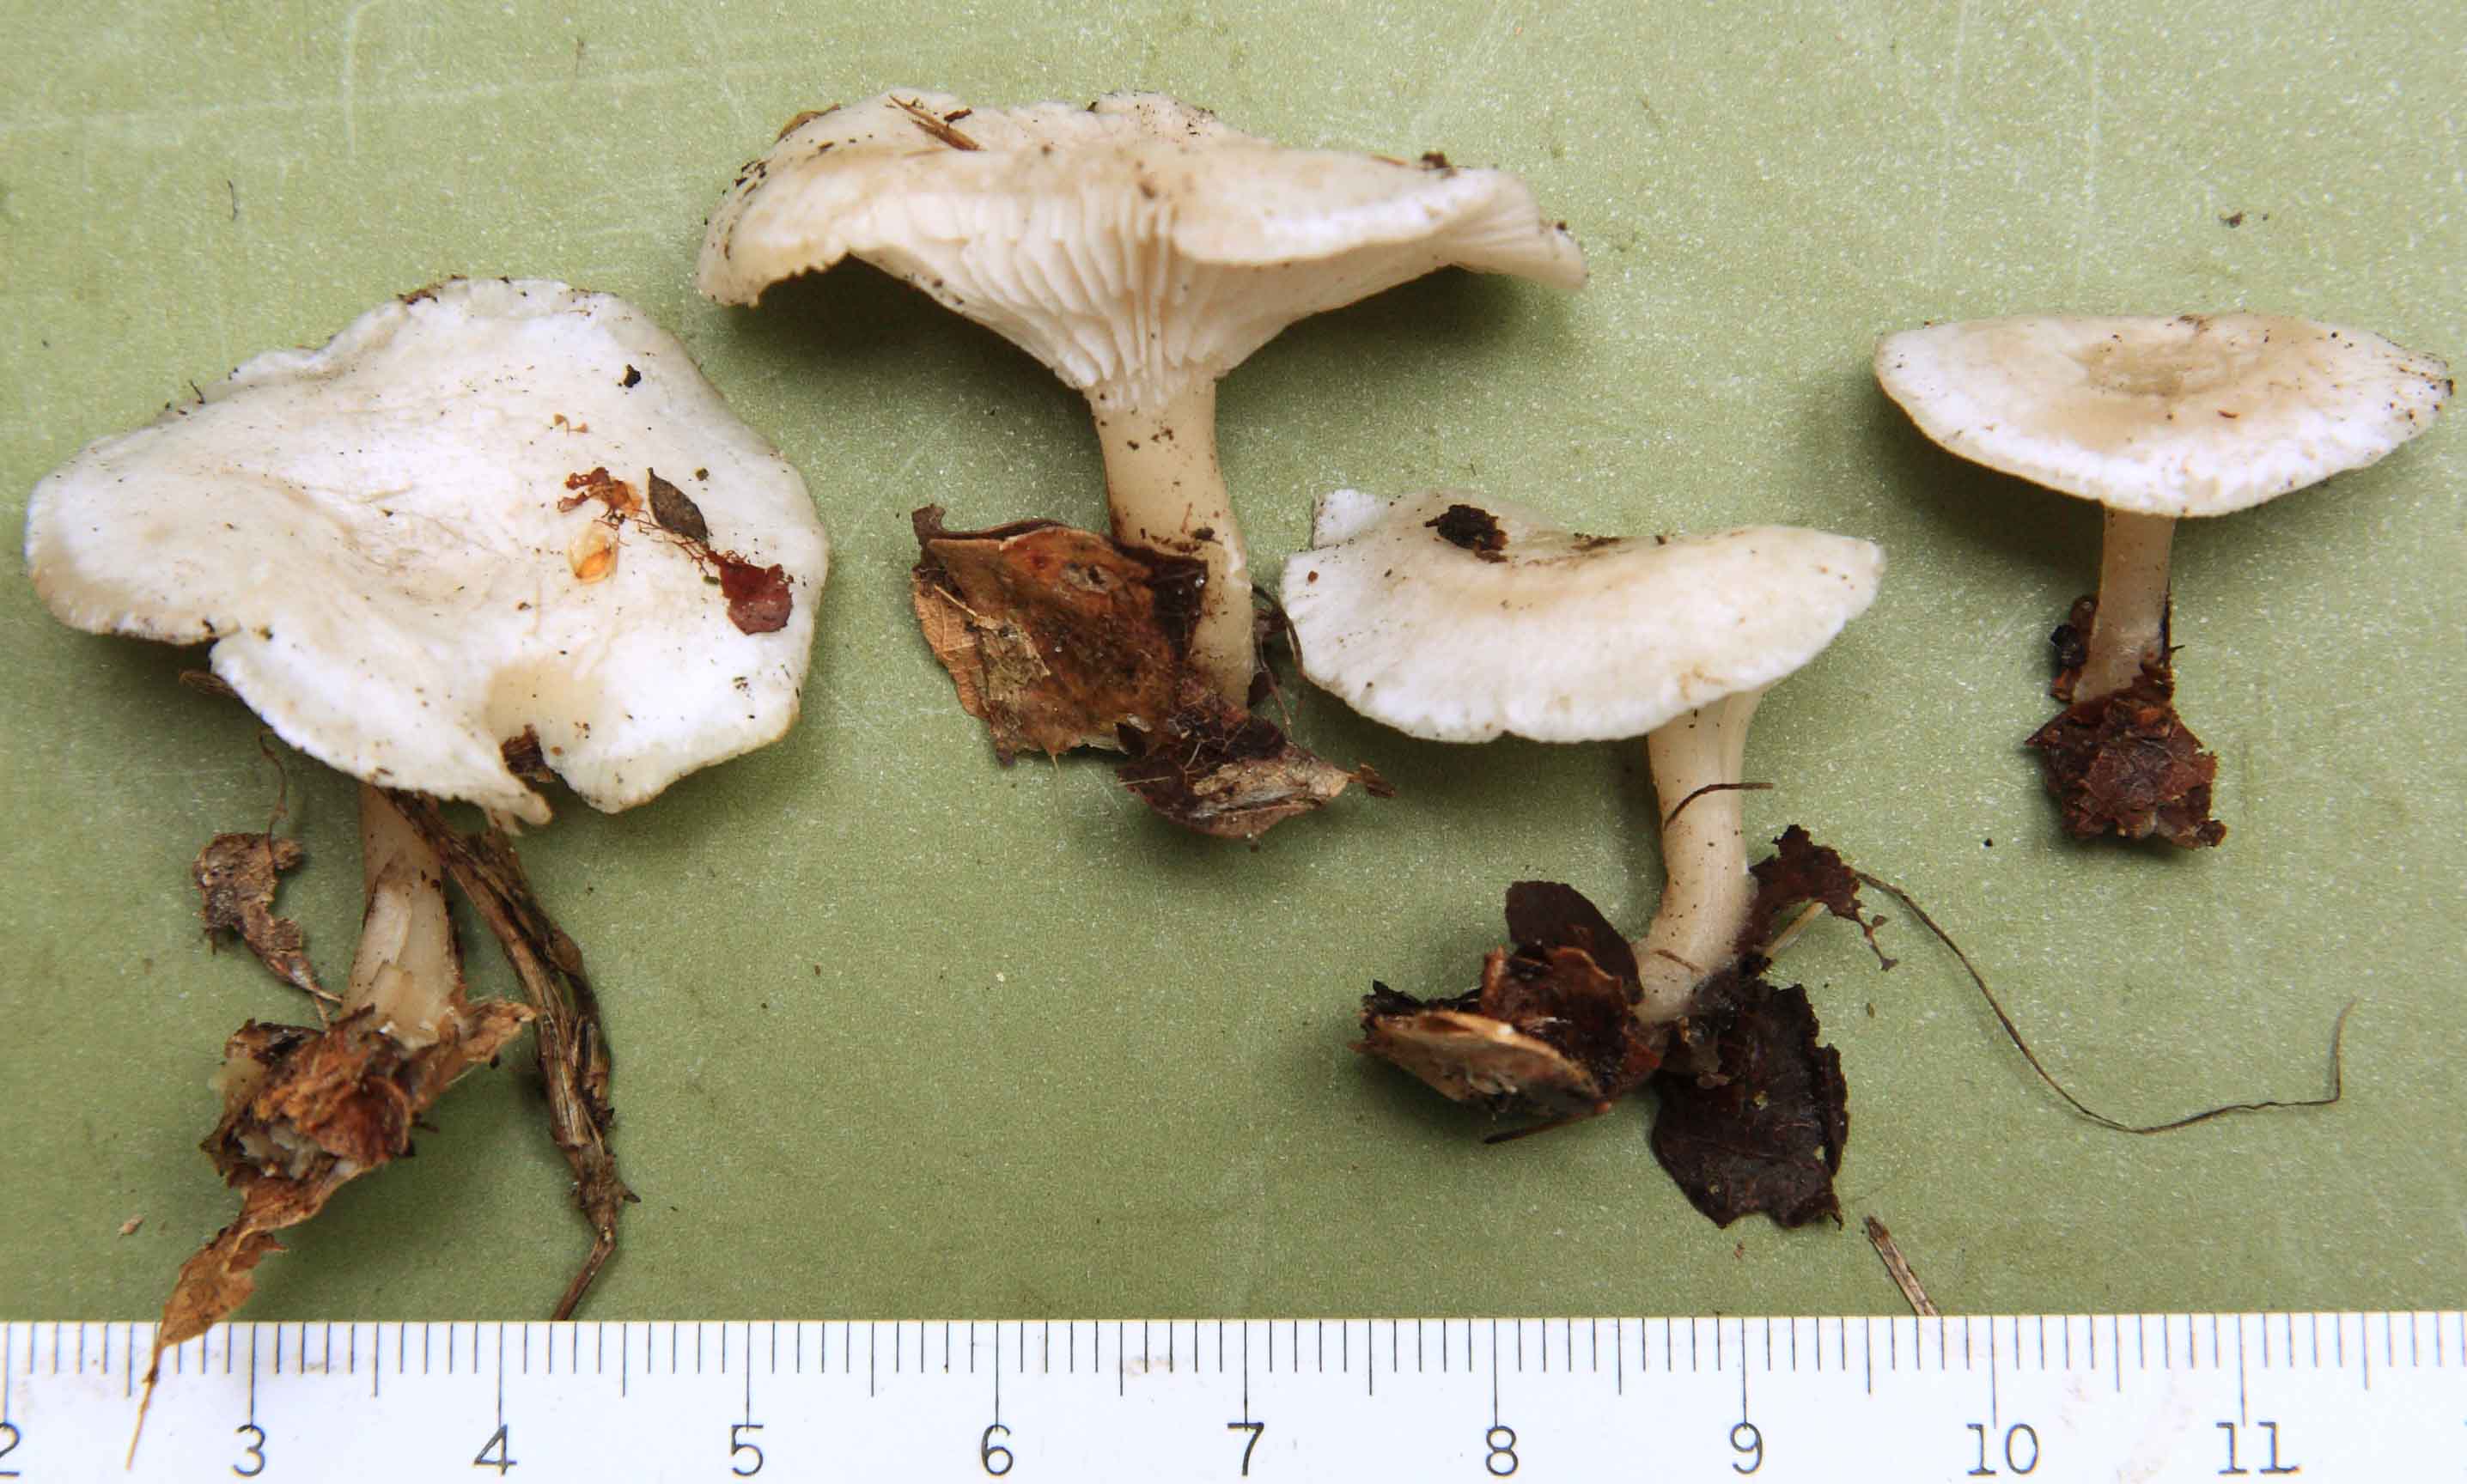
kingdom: Fungi
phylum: Basidiomycota
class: Agaricomycetes
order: Agaricales
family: Tricholomataceae
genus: Leucocybe
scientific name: Leucocybe candicans
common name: kridt-tragthat
